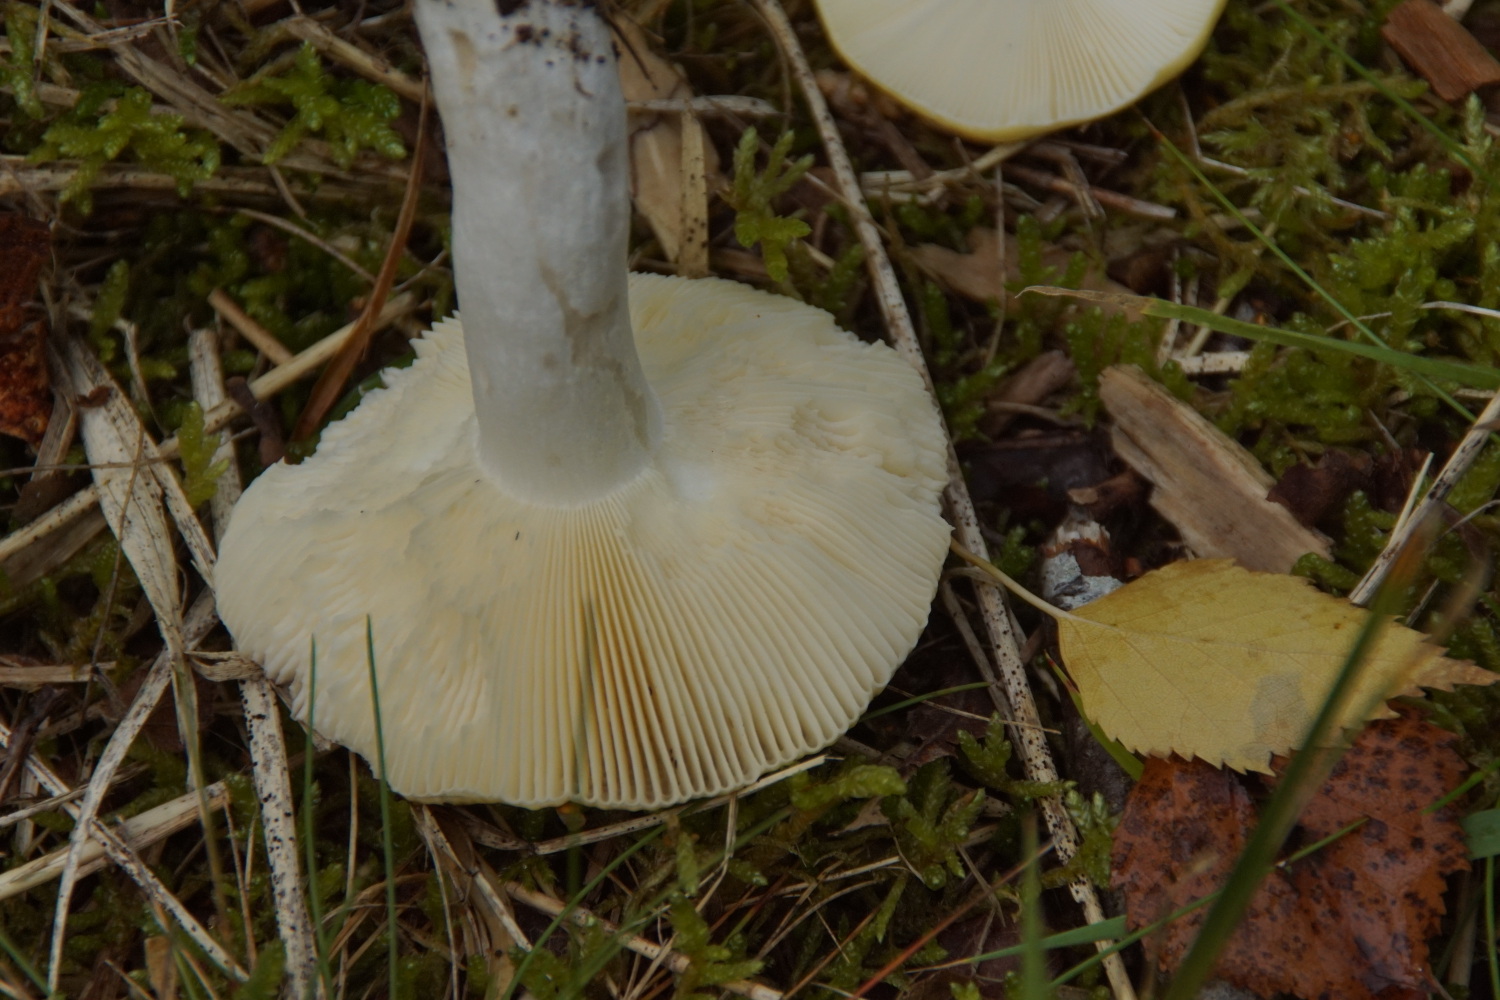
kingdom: Fungi
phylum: Basidiomycota
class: Agaricomycetes
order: Russulales
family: Russulaceae
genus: Russula
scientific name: Russula claroflava
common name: birke-skørhat
